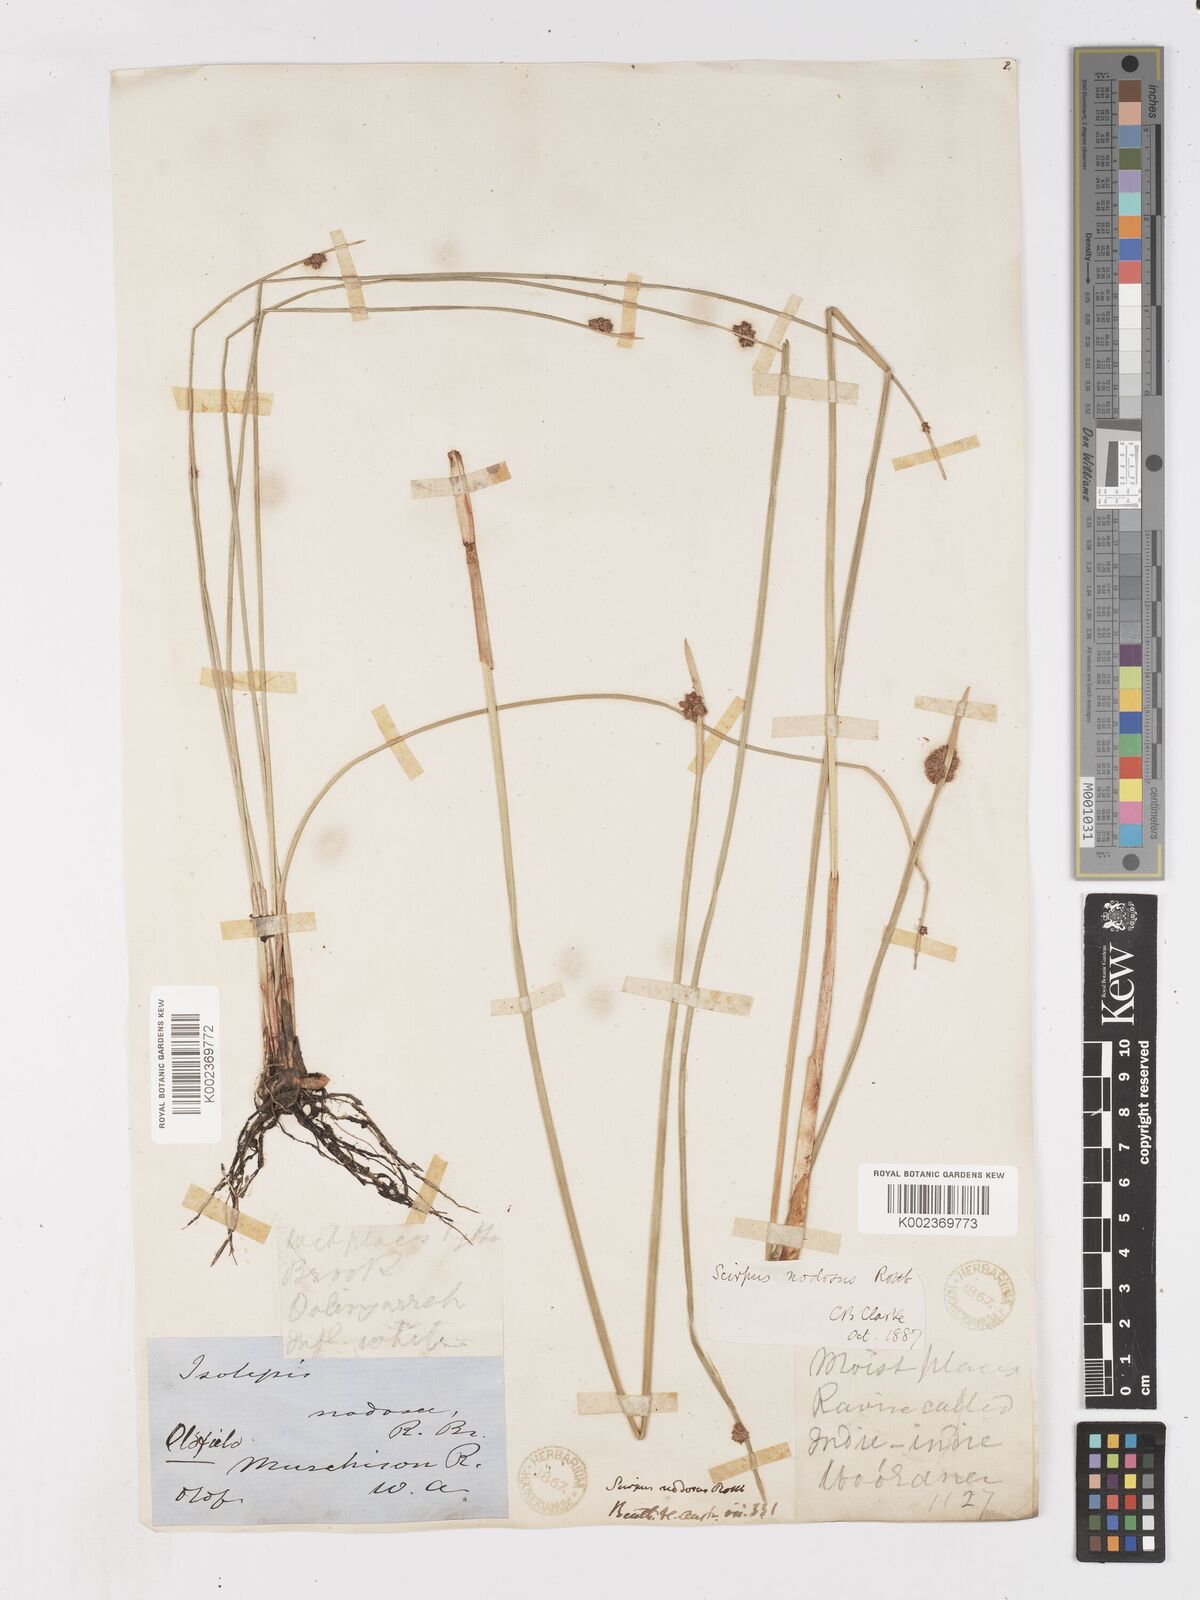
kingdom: Plantae
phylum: Tracheophyta
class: Liliopsida
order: Poales
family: Cyperaceae
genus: Ficinia
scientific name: Ficinia nodosa
